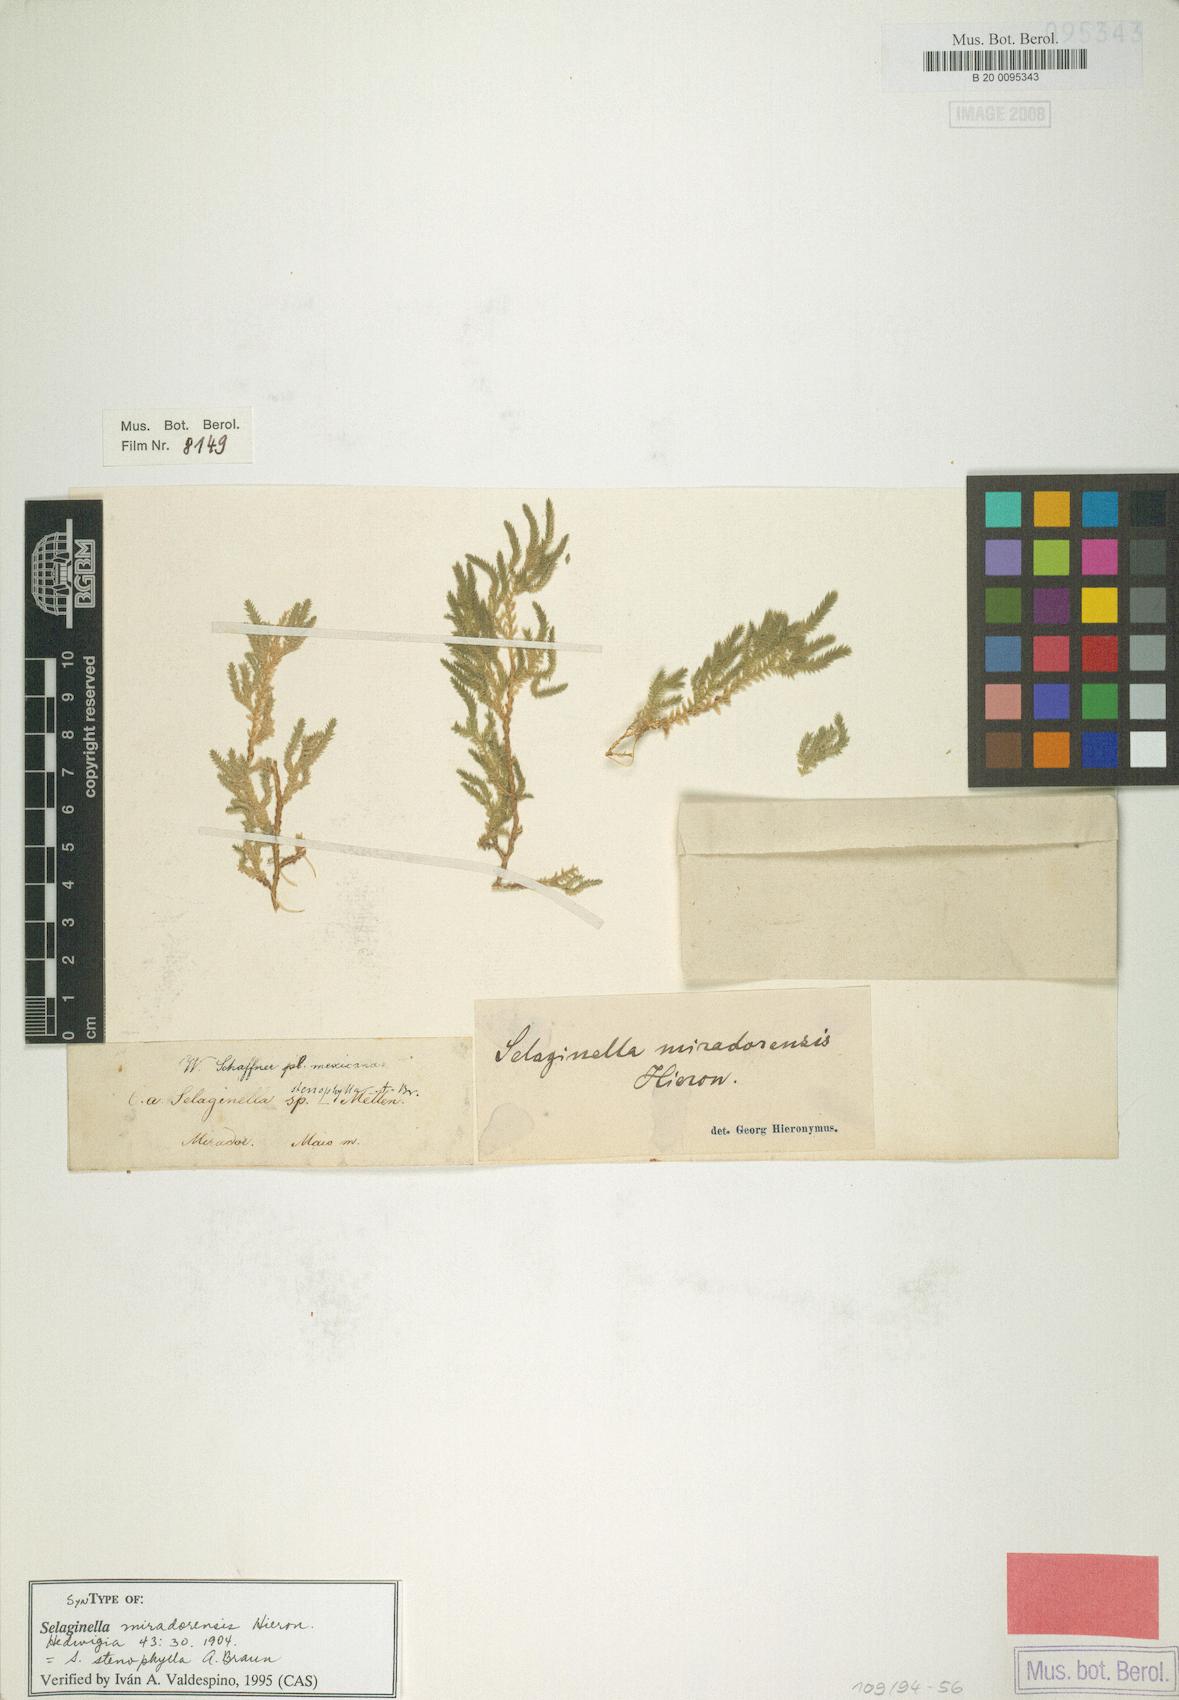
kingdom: Plantae
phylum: Tracheophyta
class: Lycopodiopsida
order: Selaginellales
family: Selaginellaceae
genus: Selaginella
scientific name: Selaginella stenophylla
